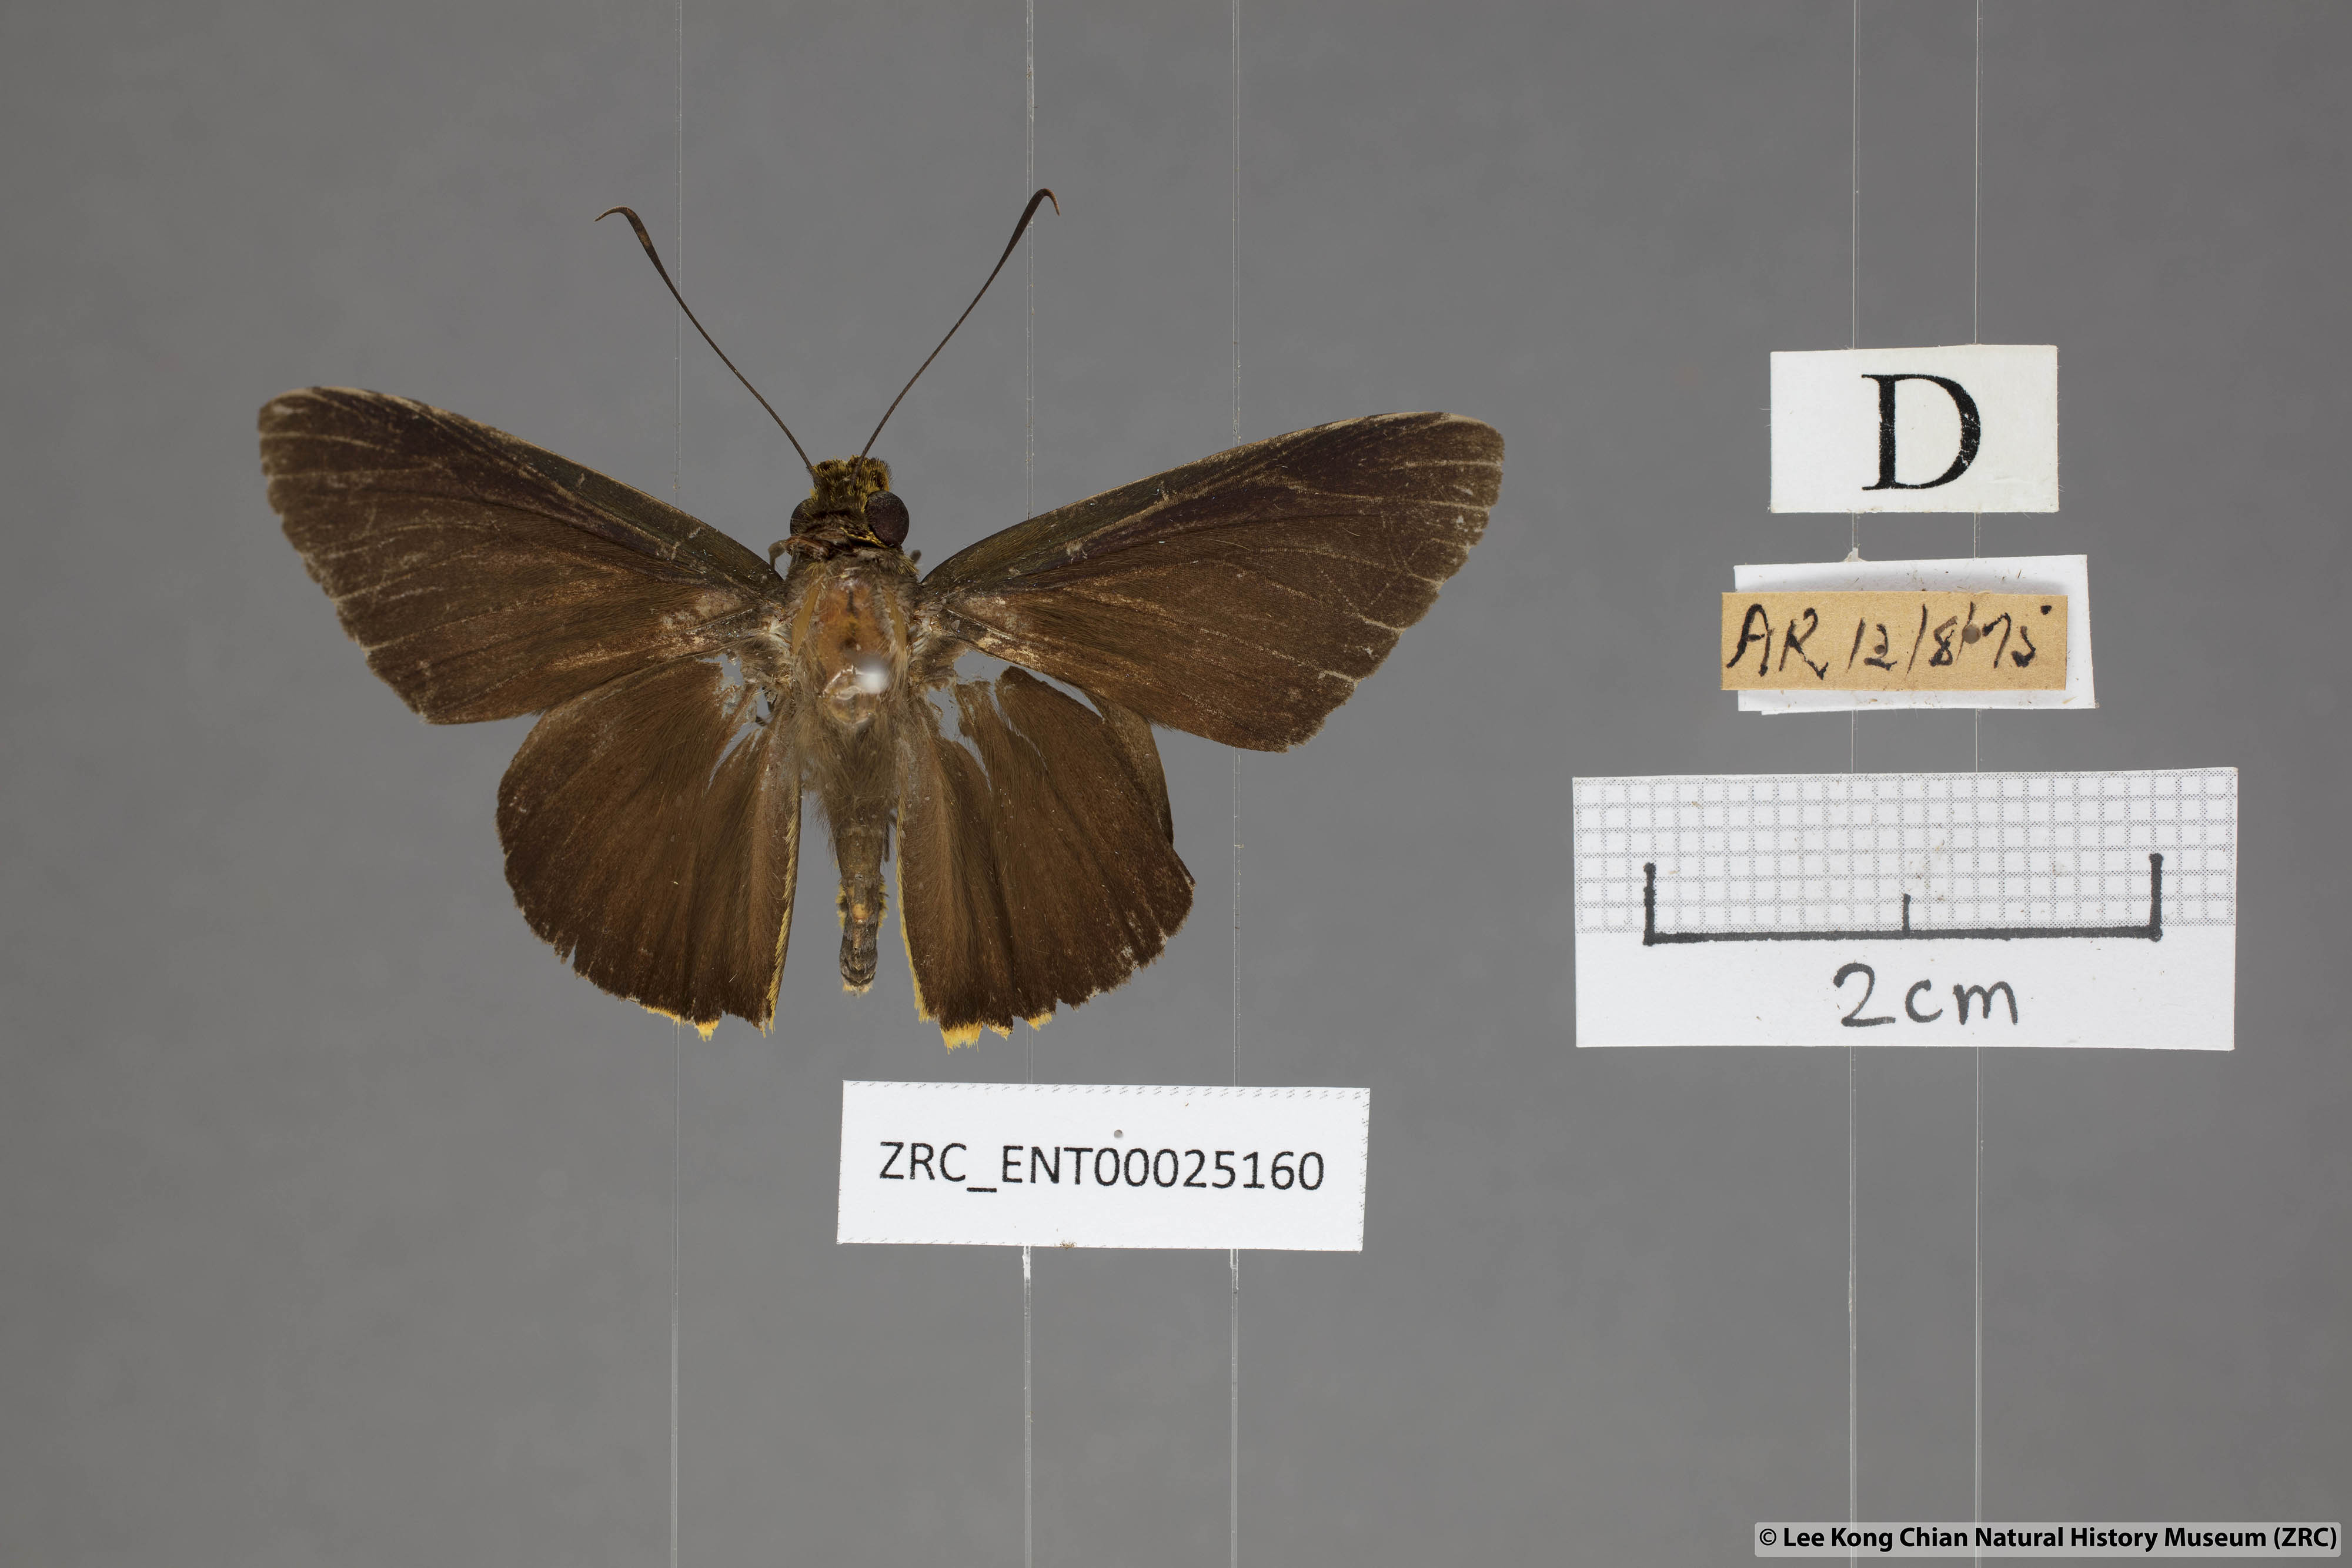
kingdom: Animalia
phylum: Arthropoda
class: Insecta
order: Lepidoptera
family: Hesperiidae
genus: Pirdana
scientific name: Pirdana distanti
